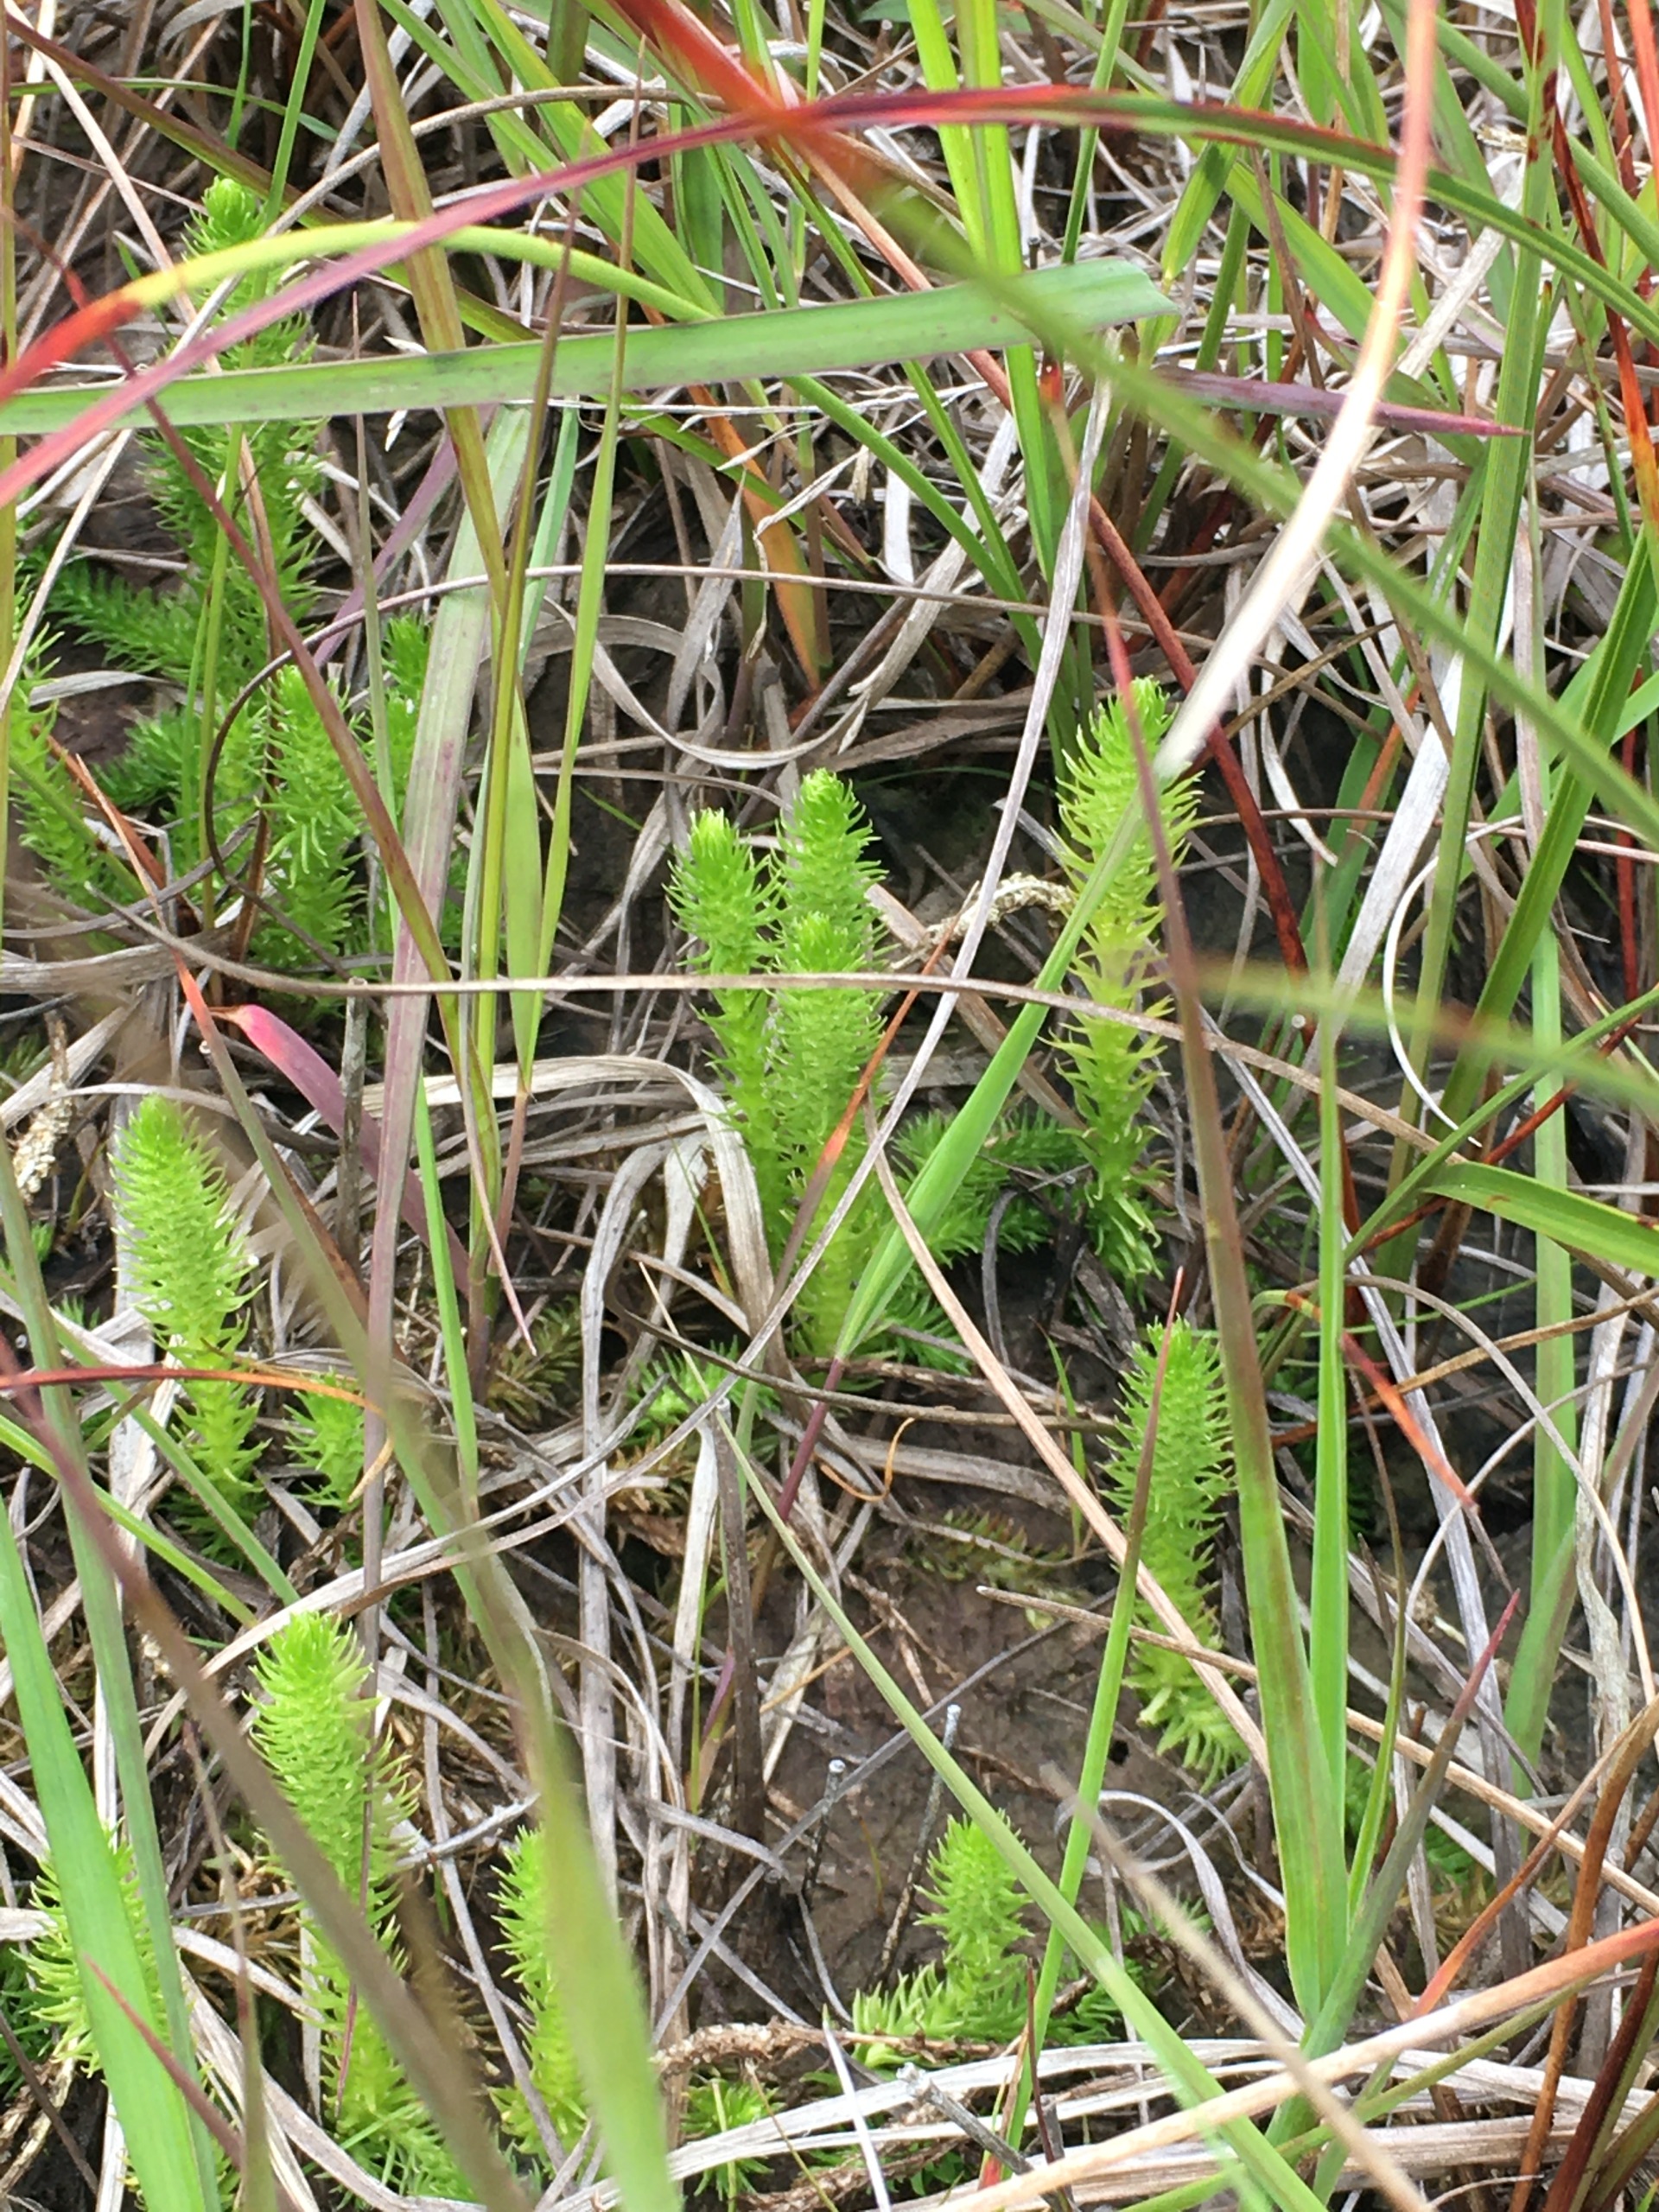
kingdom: Plantae
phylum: Tracheophyta
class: Lycopodiopsida
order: Lycopodiales
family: Lycopodiaceae
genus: Lycopodiella
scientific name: Lycopodiella inundata
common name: Liden ulvefod
